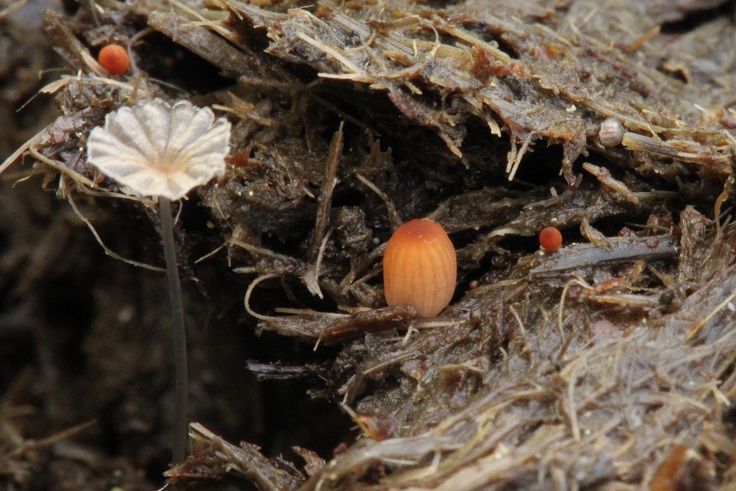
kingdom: Fungi
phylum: Basidiomycota
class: Agaricomycetes
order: Agaricales
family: Psathyrellaceae
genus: Parasola
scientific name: Parasola misera
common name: lillebitte hjulhat
